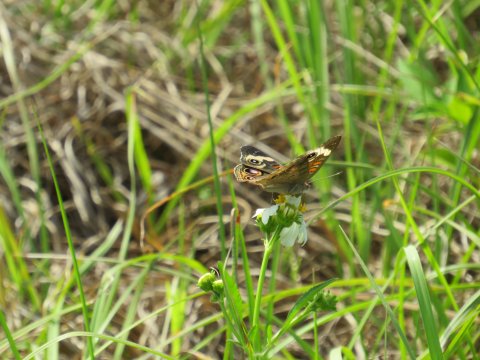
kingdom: Animalia
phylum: Arthropoda
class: Insecta
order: Lepidoptera
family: Nymphalidae
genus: Junonia
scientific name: Junonia coenia
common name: Common Buckeye
